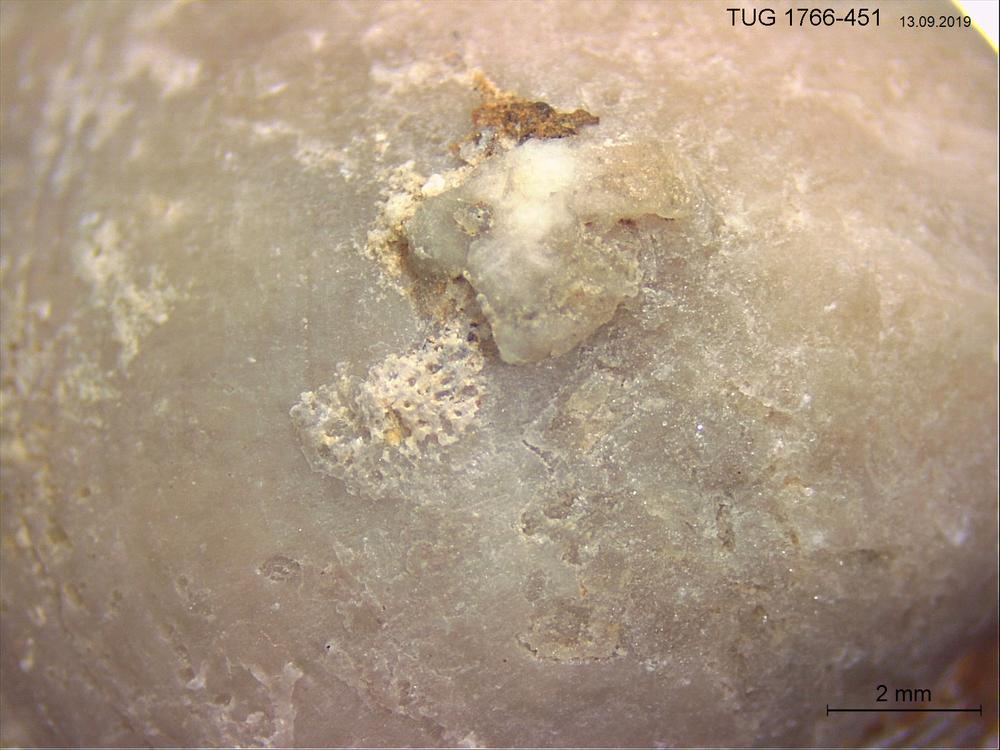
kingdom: Animalia
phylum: Bryozoa
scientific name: Bryozoa
